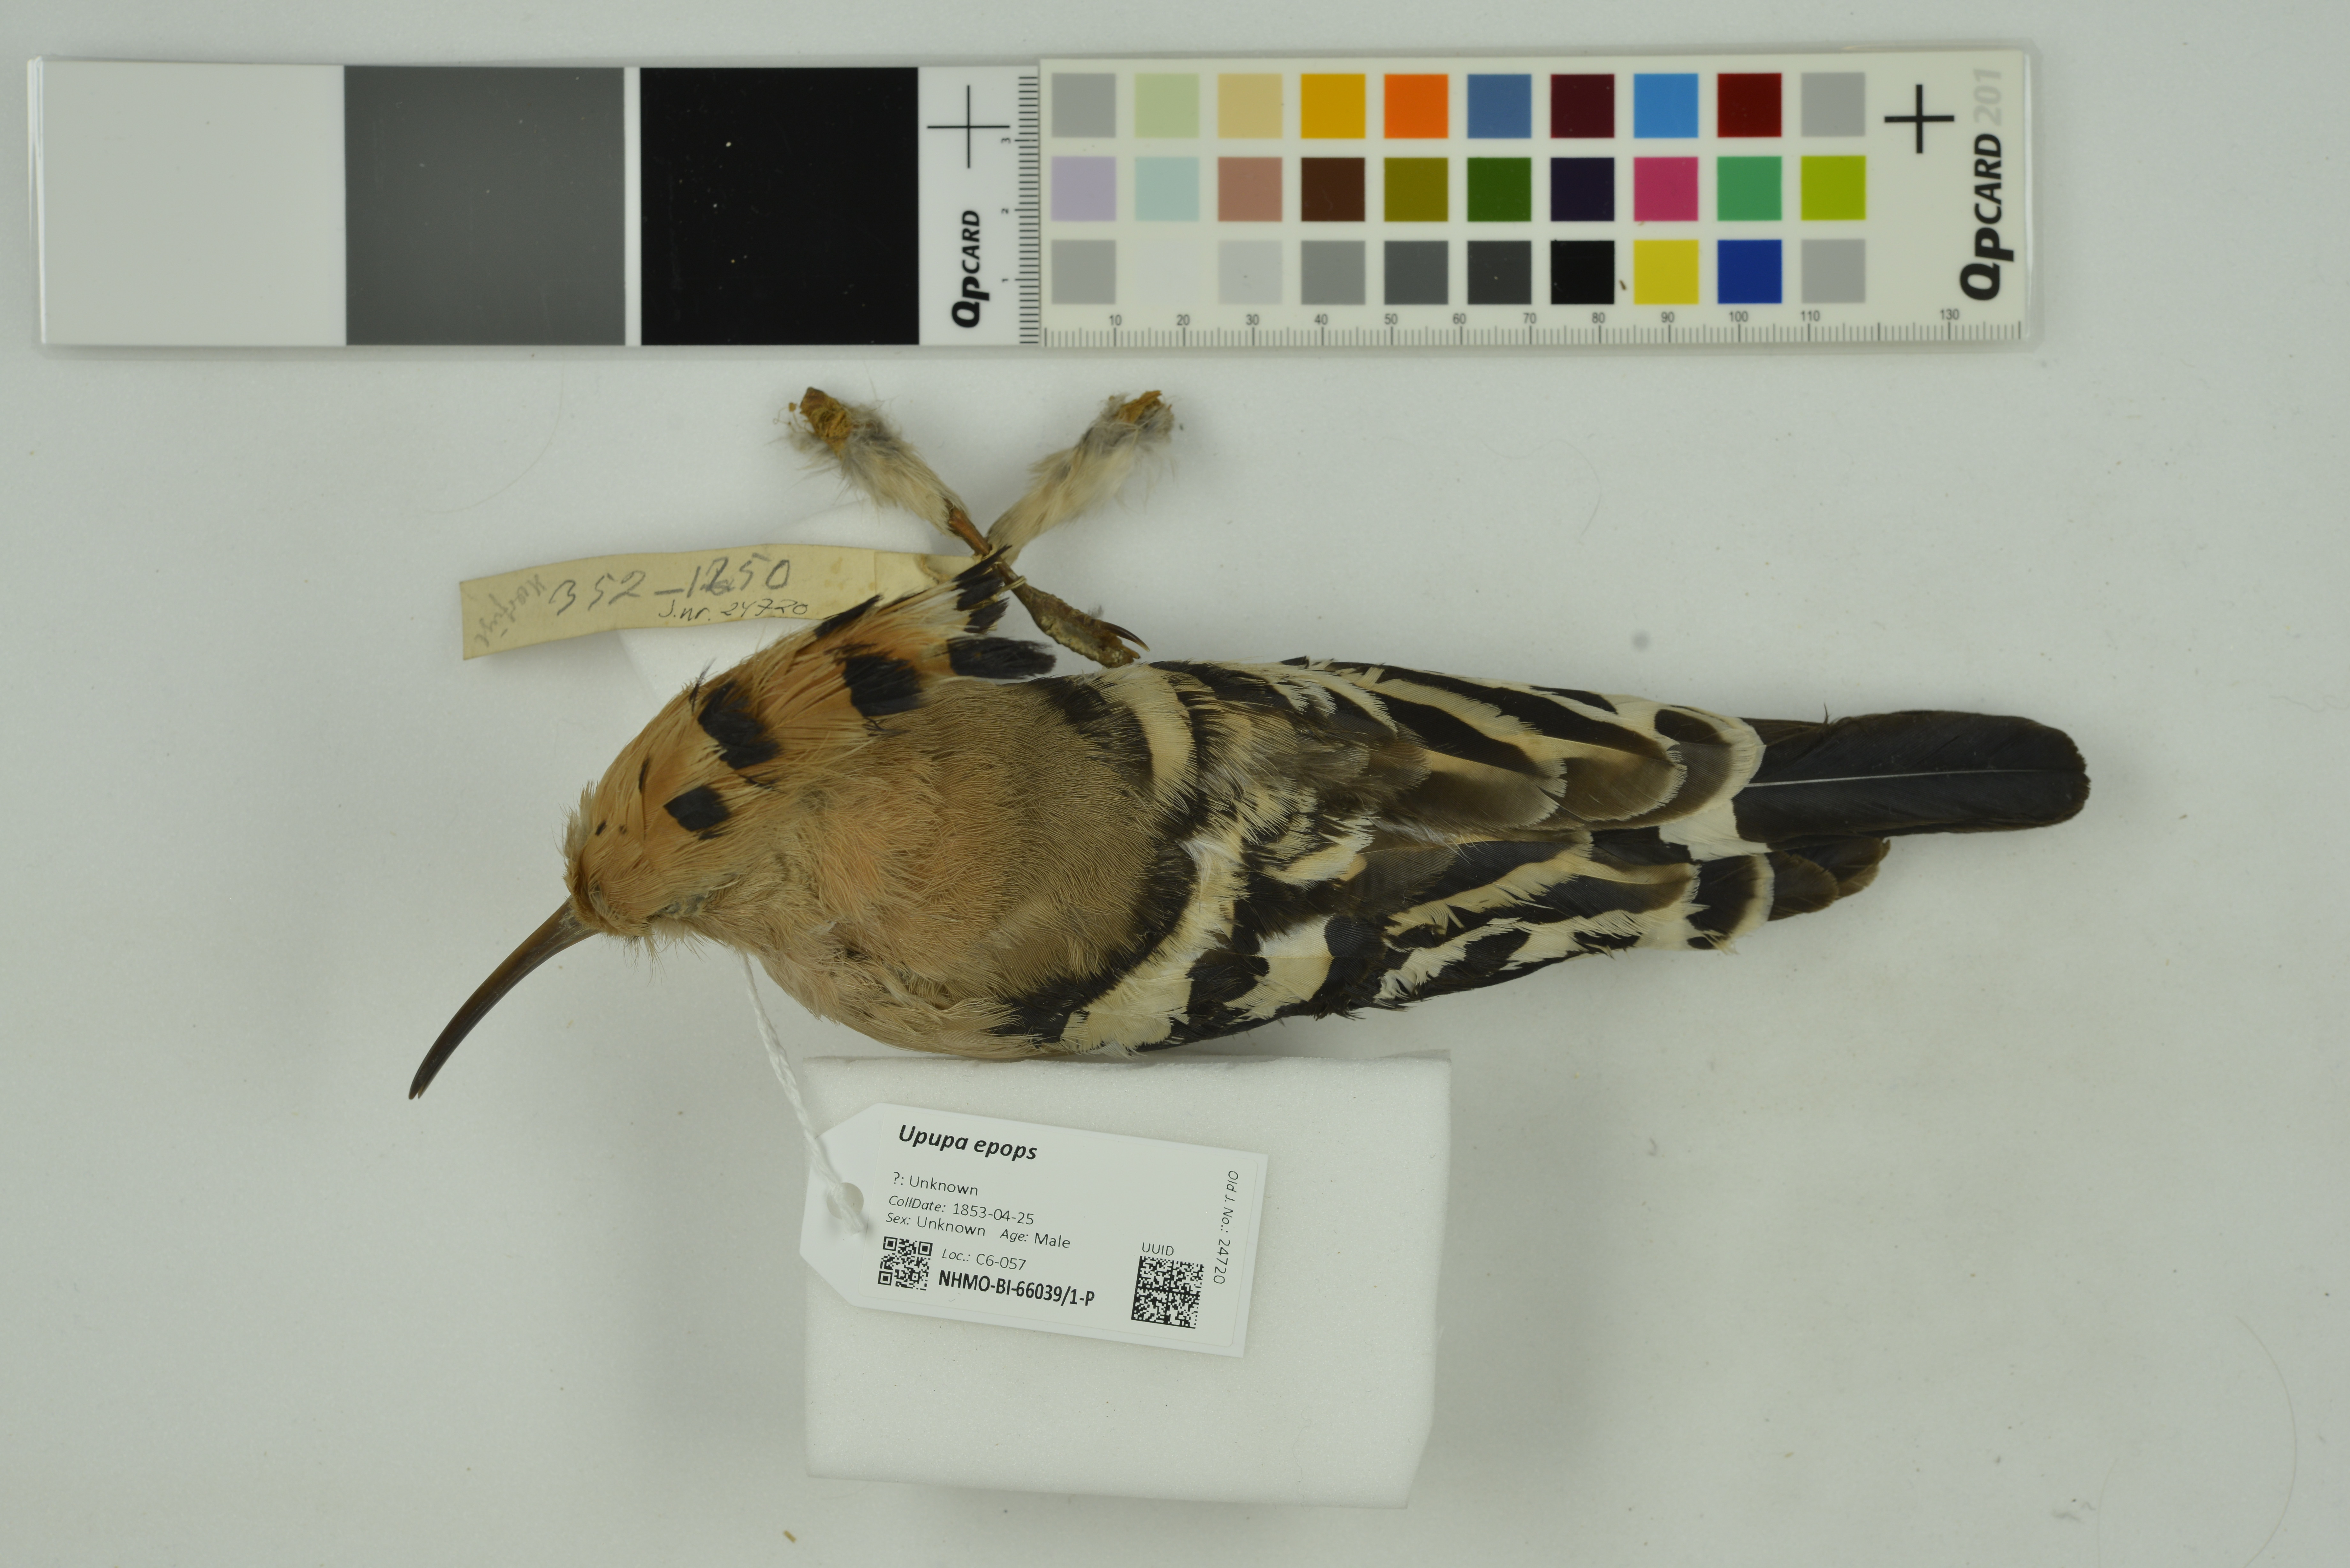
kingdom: Animalia
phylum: Chordata
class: Aves
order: Bucerotiformes
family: Upupidae
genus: Upupa
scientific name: Upupa epops
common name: Eurasian hoopoe
